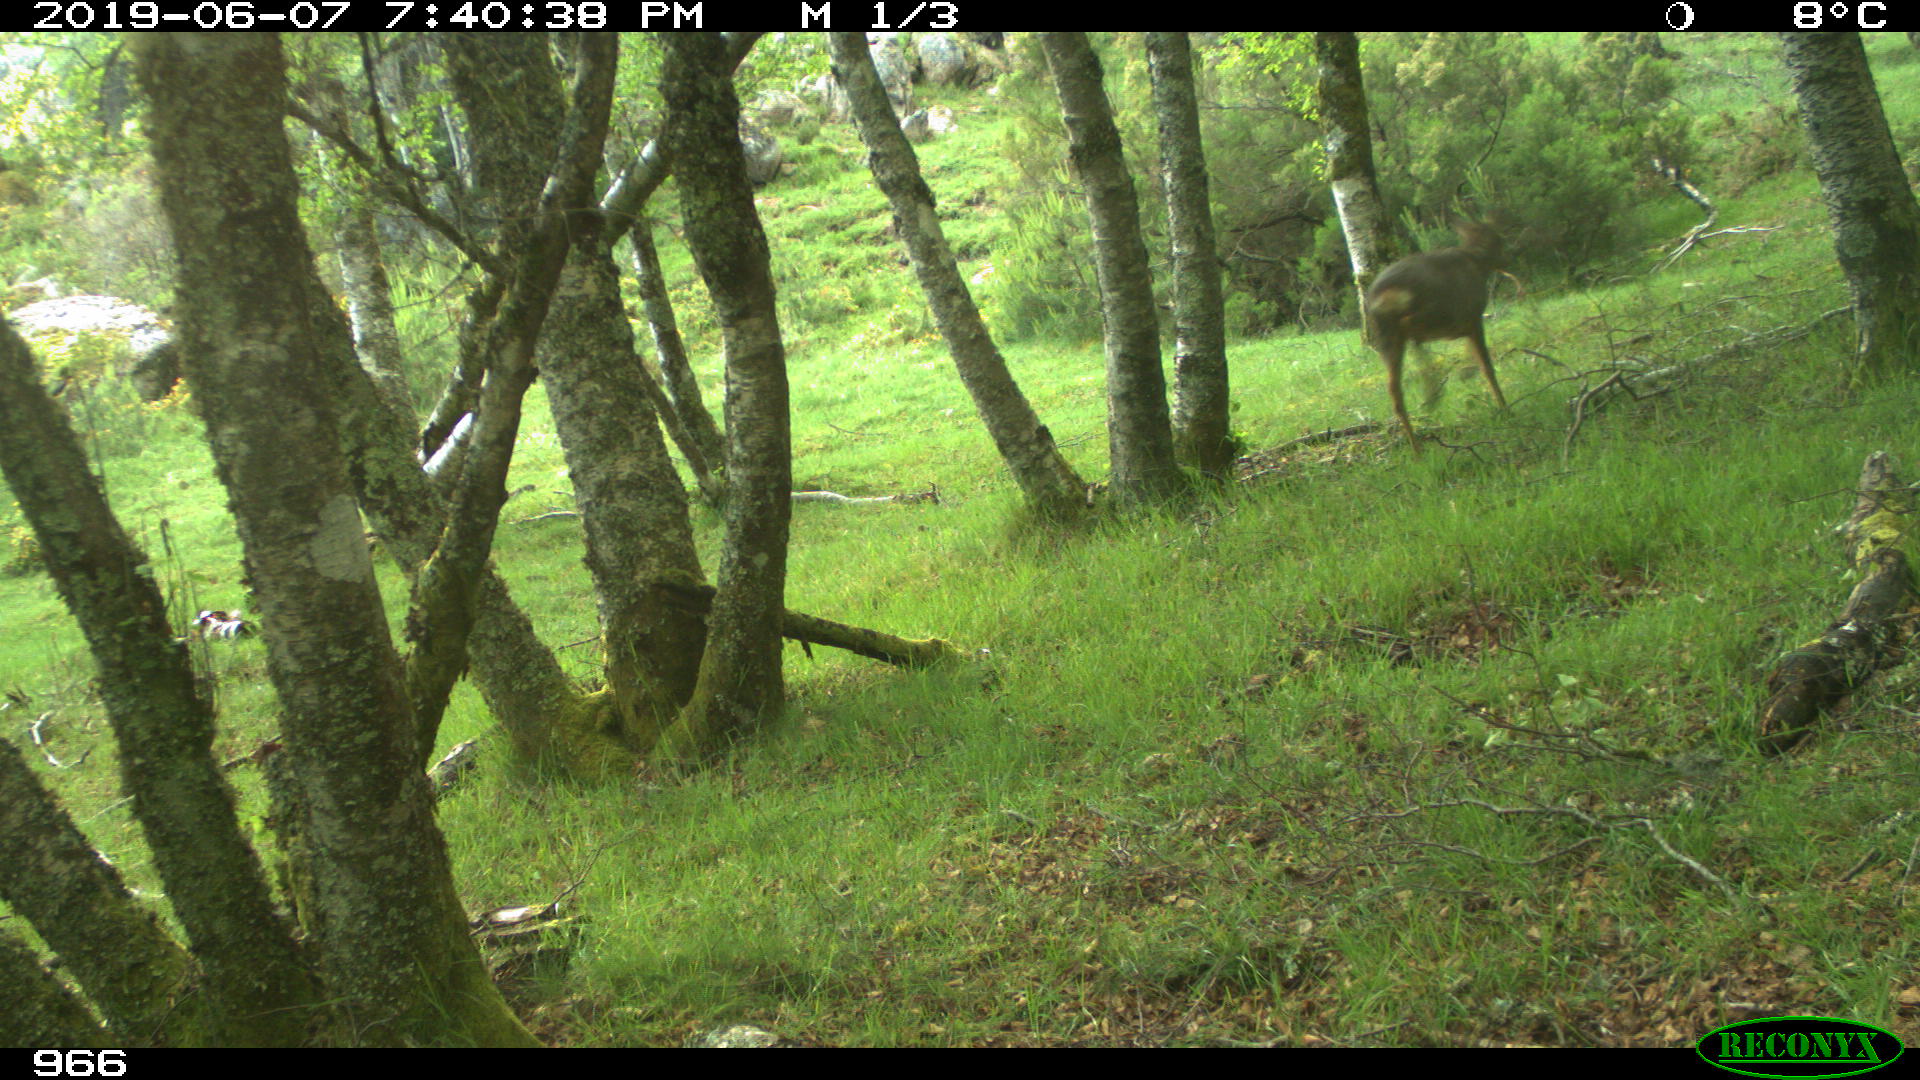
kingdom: Animalia
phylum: Chordata
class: Mammalia
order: Artiodactyla
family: Cervidae
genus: Capreolus
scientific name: Capreolus capreolus
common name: Western roe deer
